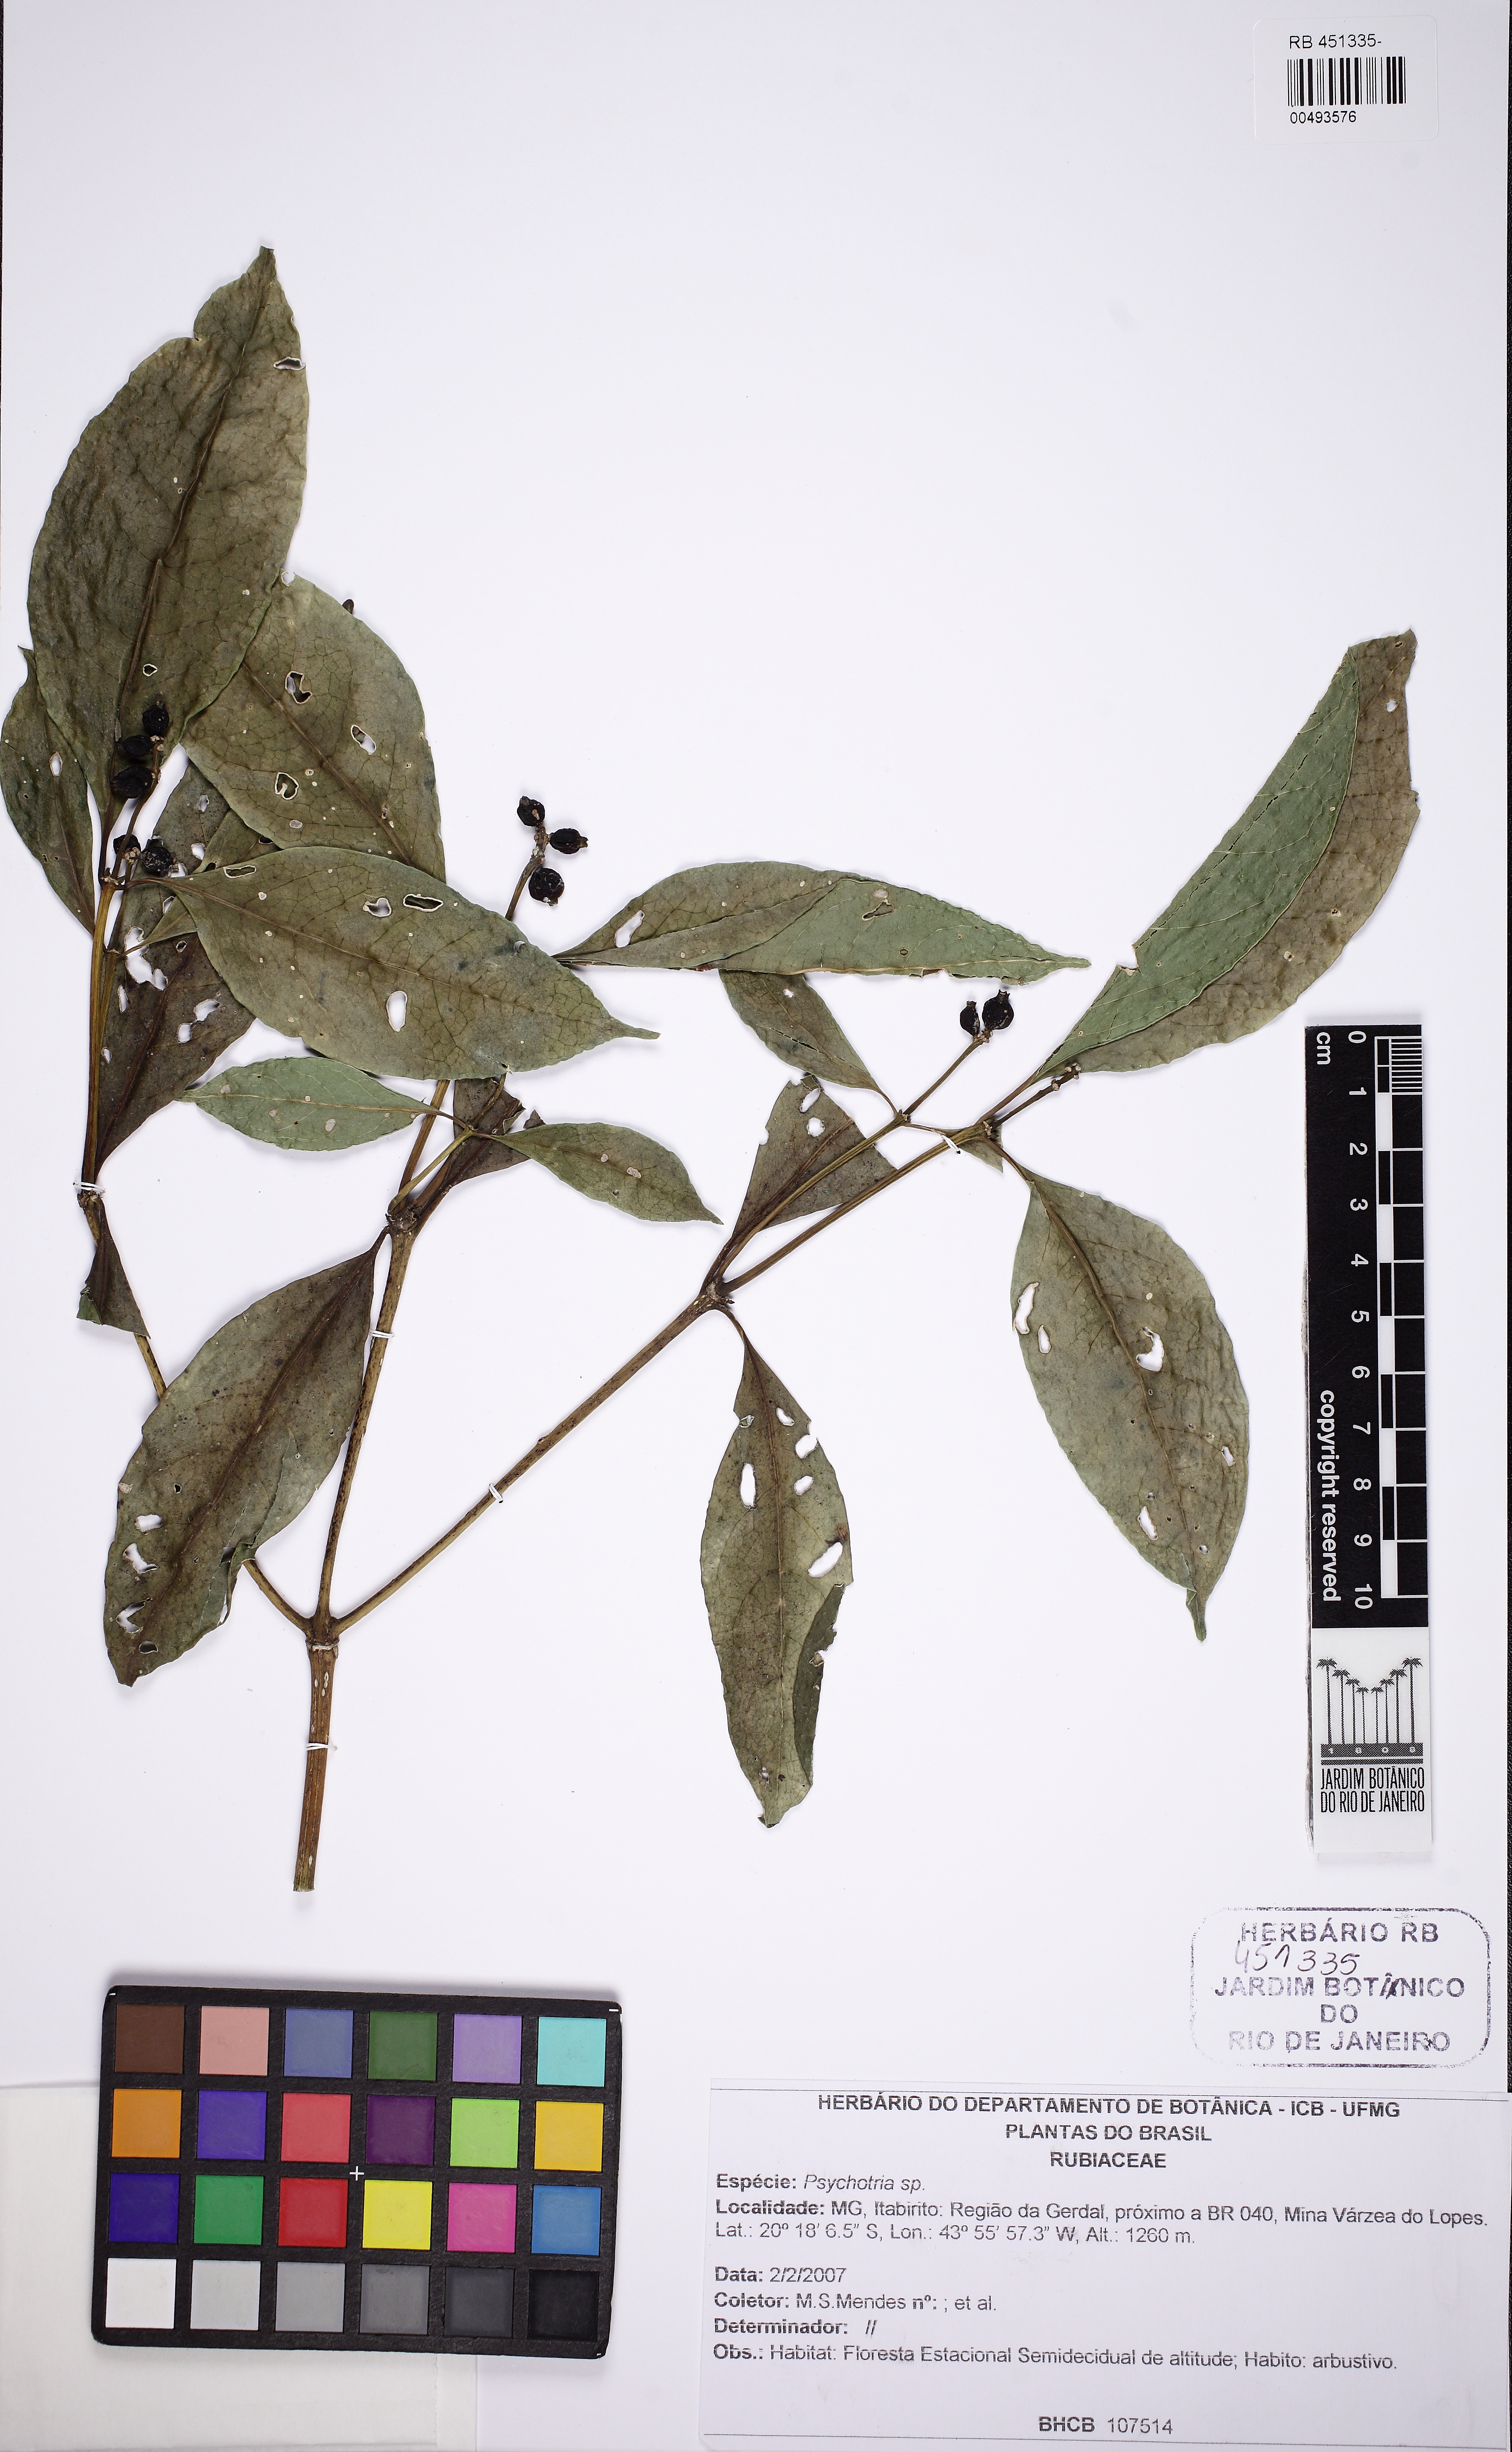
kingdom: Plantae
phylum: Tracheophyta
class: Magnoliopsida
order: Gentianales
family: Rubiaceae
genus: Coussarea
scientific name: Coussarea
